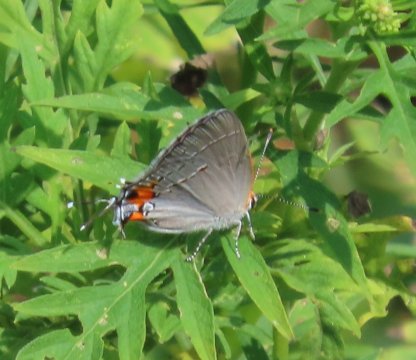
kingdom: Animalia
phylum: Arthropoda
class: Insecta
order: Lepidoptera
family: Lycaenidae
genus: Strymon
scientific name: Strymon melinus
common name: Gray Hairstreak
